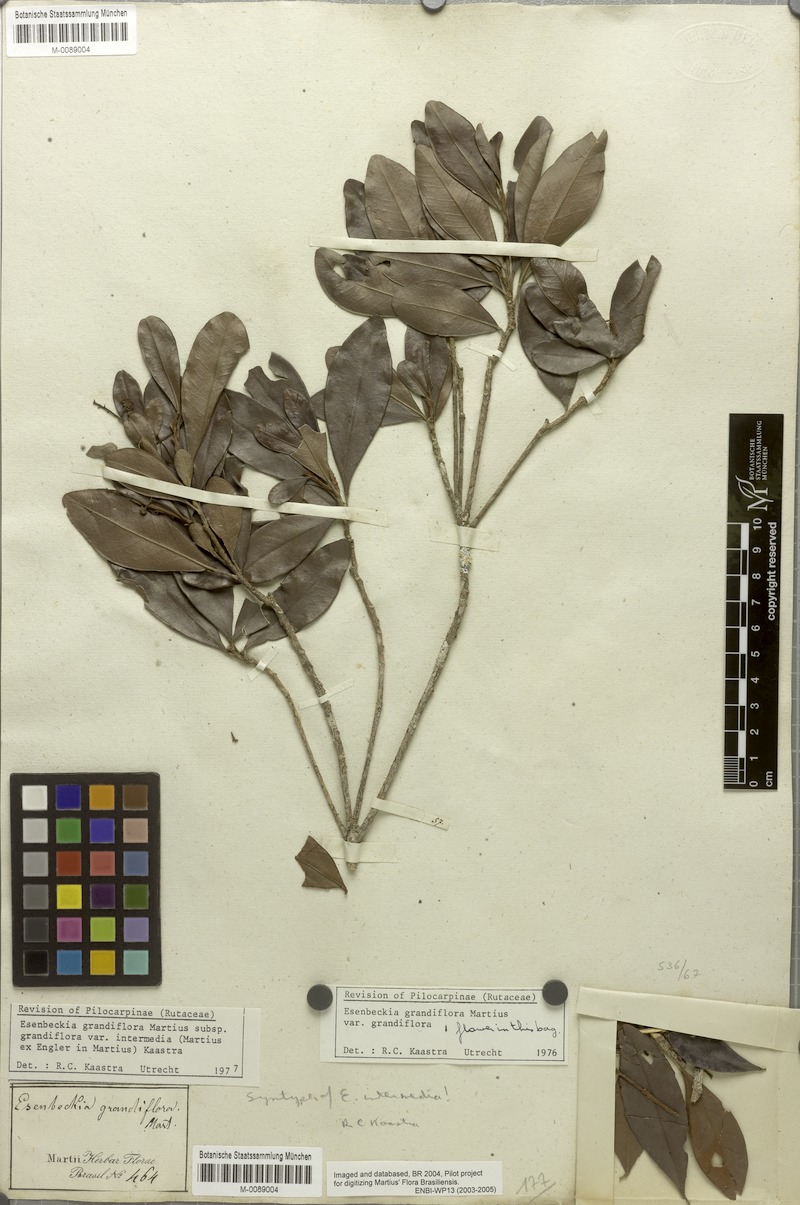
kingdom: Plantae
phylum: Tracheophyta
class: Magnoliopsida
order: Sapindales
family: Rutaceae
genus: Esenbeckia
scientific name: Esenbeckia grandiflora
